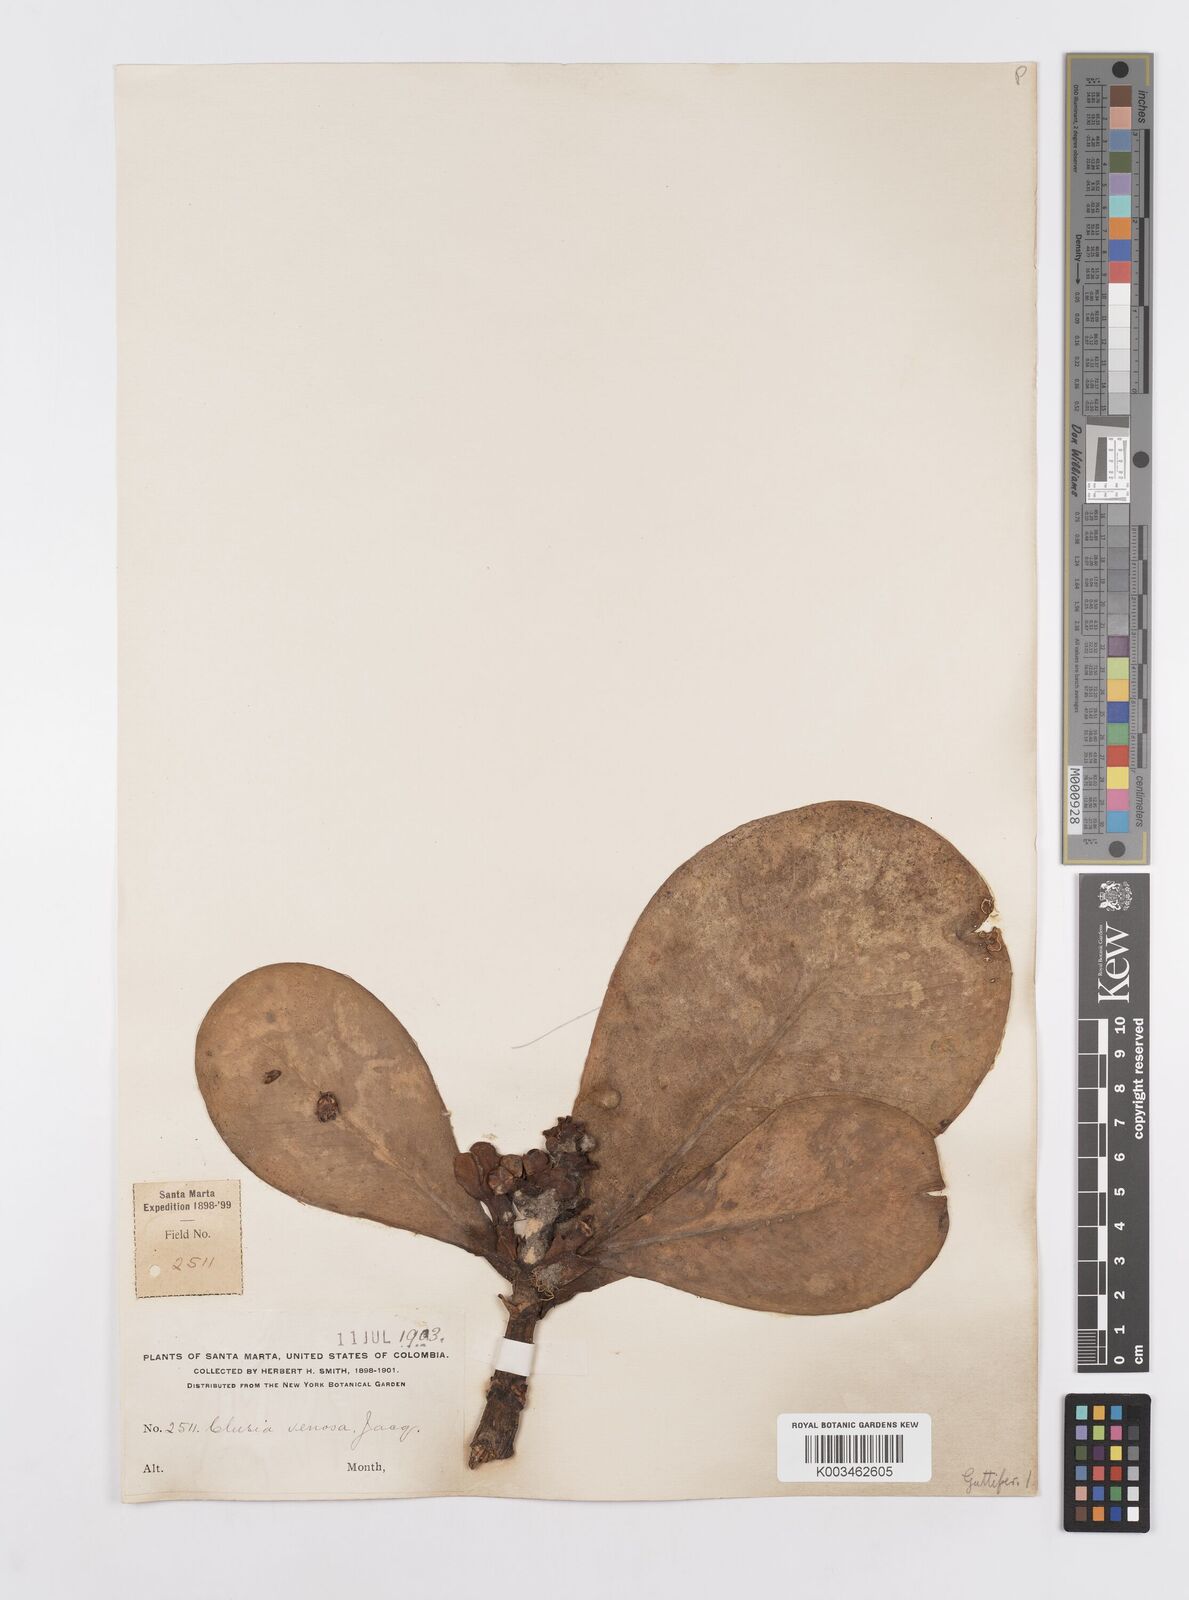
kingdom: Plantae
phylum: Tracheophyta
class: Magnoliopsida
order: Malpighiales
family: Clusiaceae
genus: Clusia
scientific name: Clusia minor
